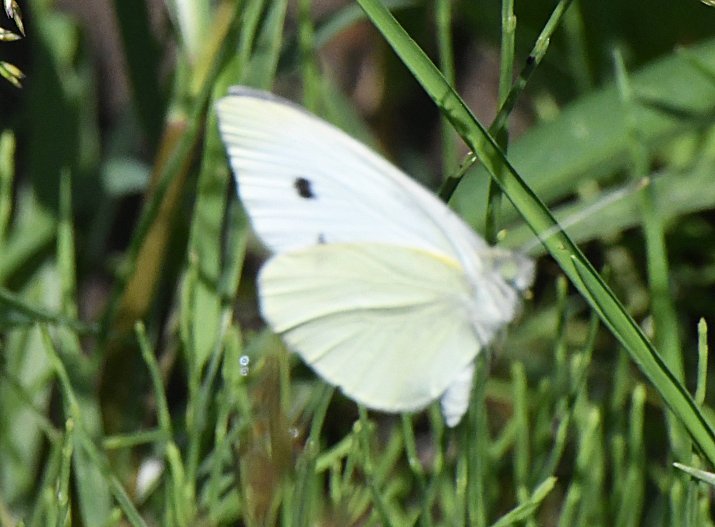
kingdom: Animalia
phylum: Arthropoda
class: Insecta
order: Lepidoptera
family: Pieridae
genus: Pieris
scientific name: Pieris rapae
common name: Cabbage White
